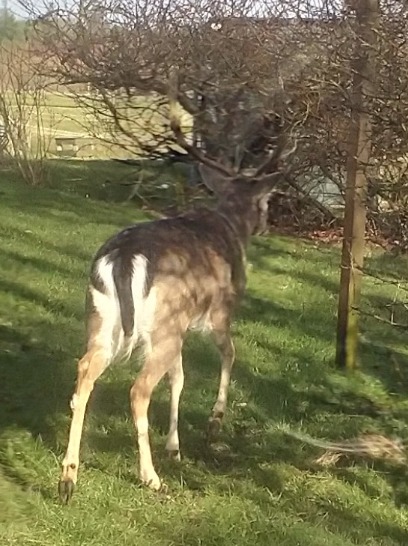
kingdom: Animalia
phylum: Chordata
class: Mammalia
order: Artiodactyla
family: Cervidae
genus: Dama
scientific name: Dama dama
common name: Dådyr
